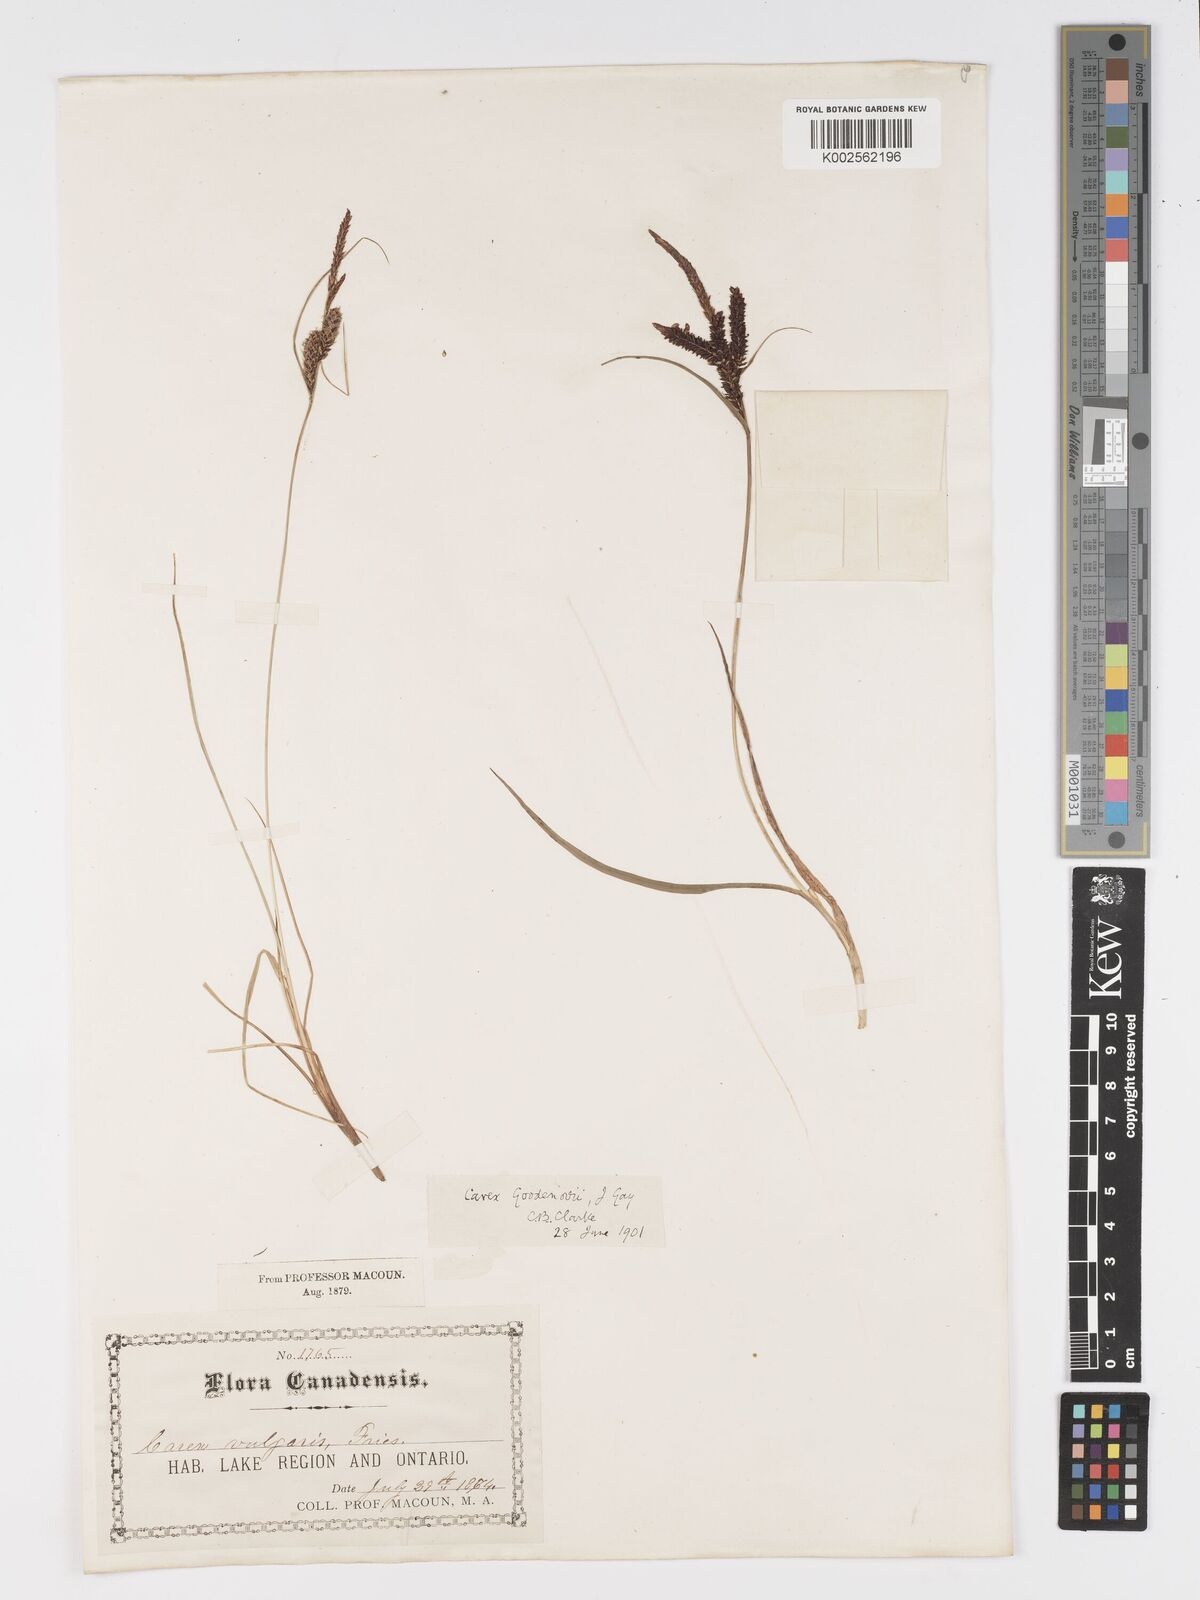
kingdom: Plantae
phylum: Tracheophyta
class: Liliopsida
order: Poales
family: Cyperaceae
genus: Carex
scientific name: Carex nigra
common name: Common sedge
